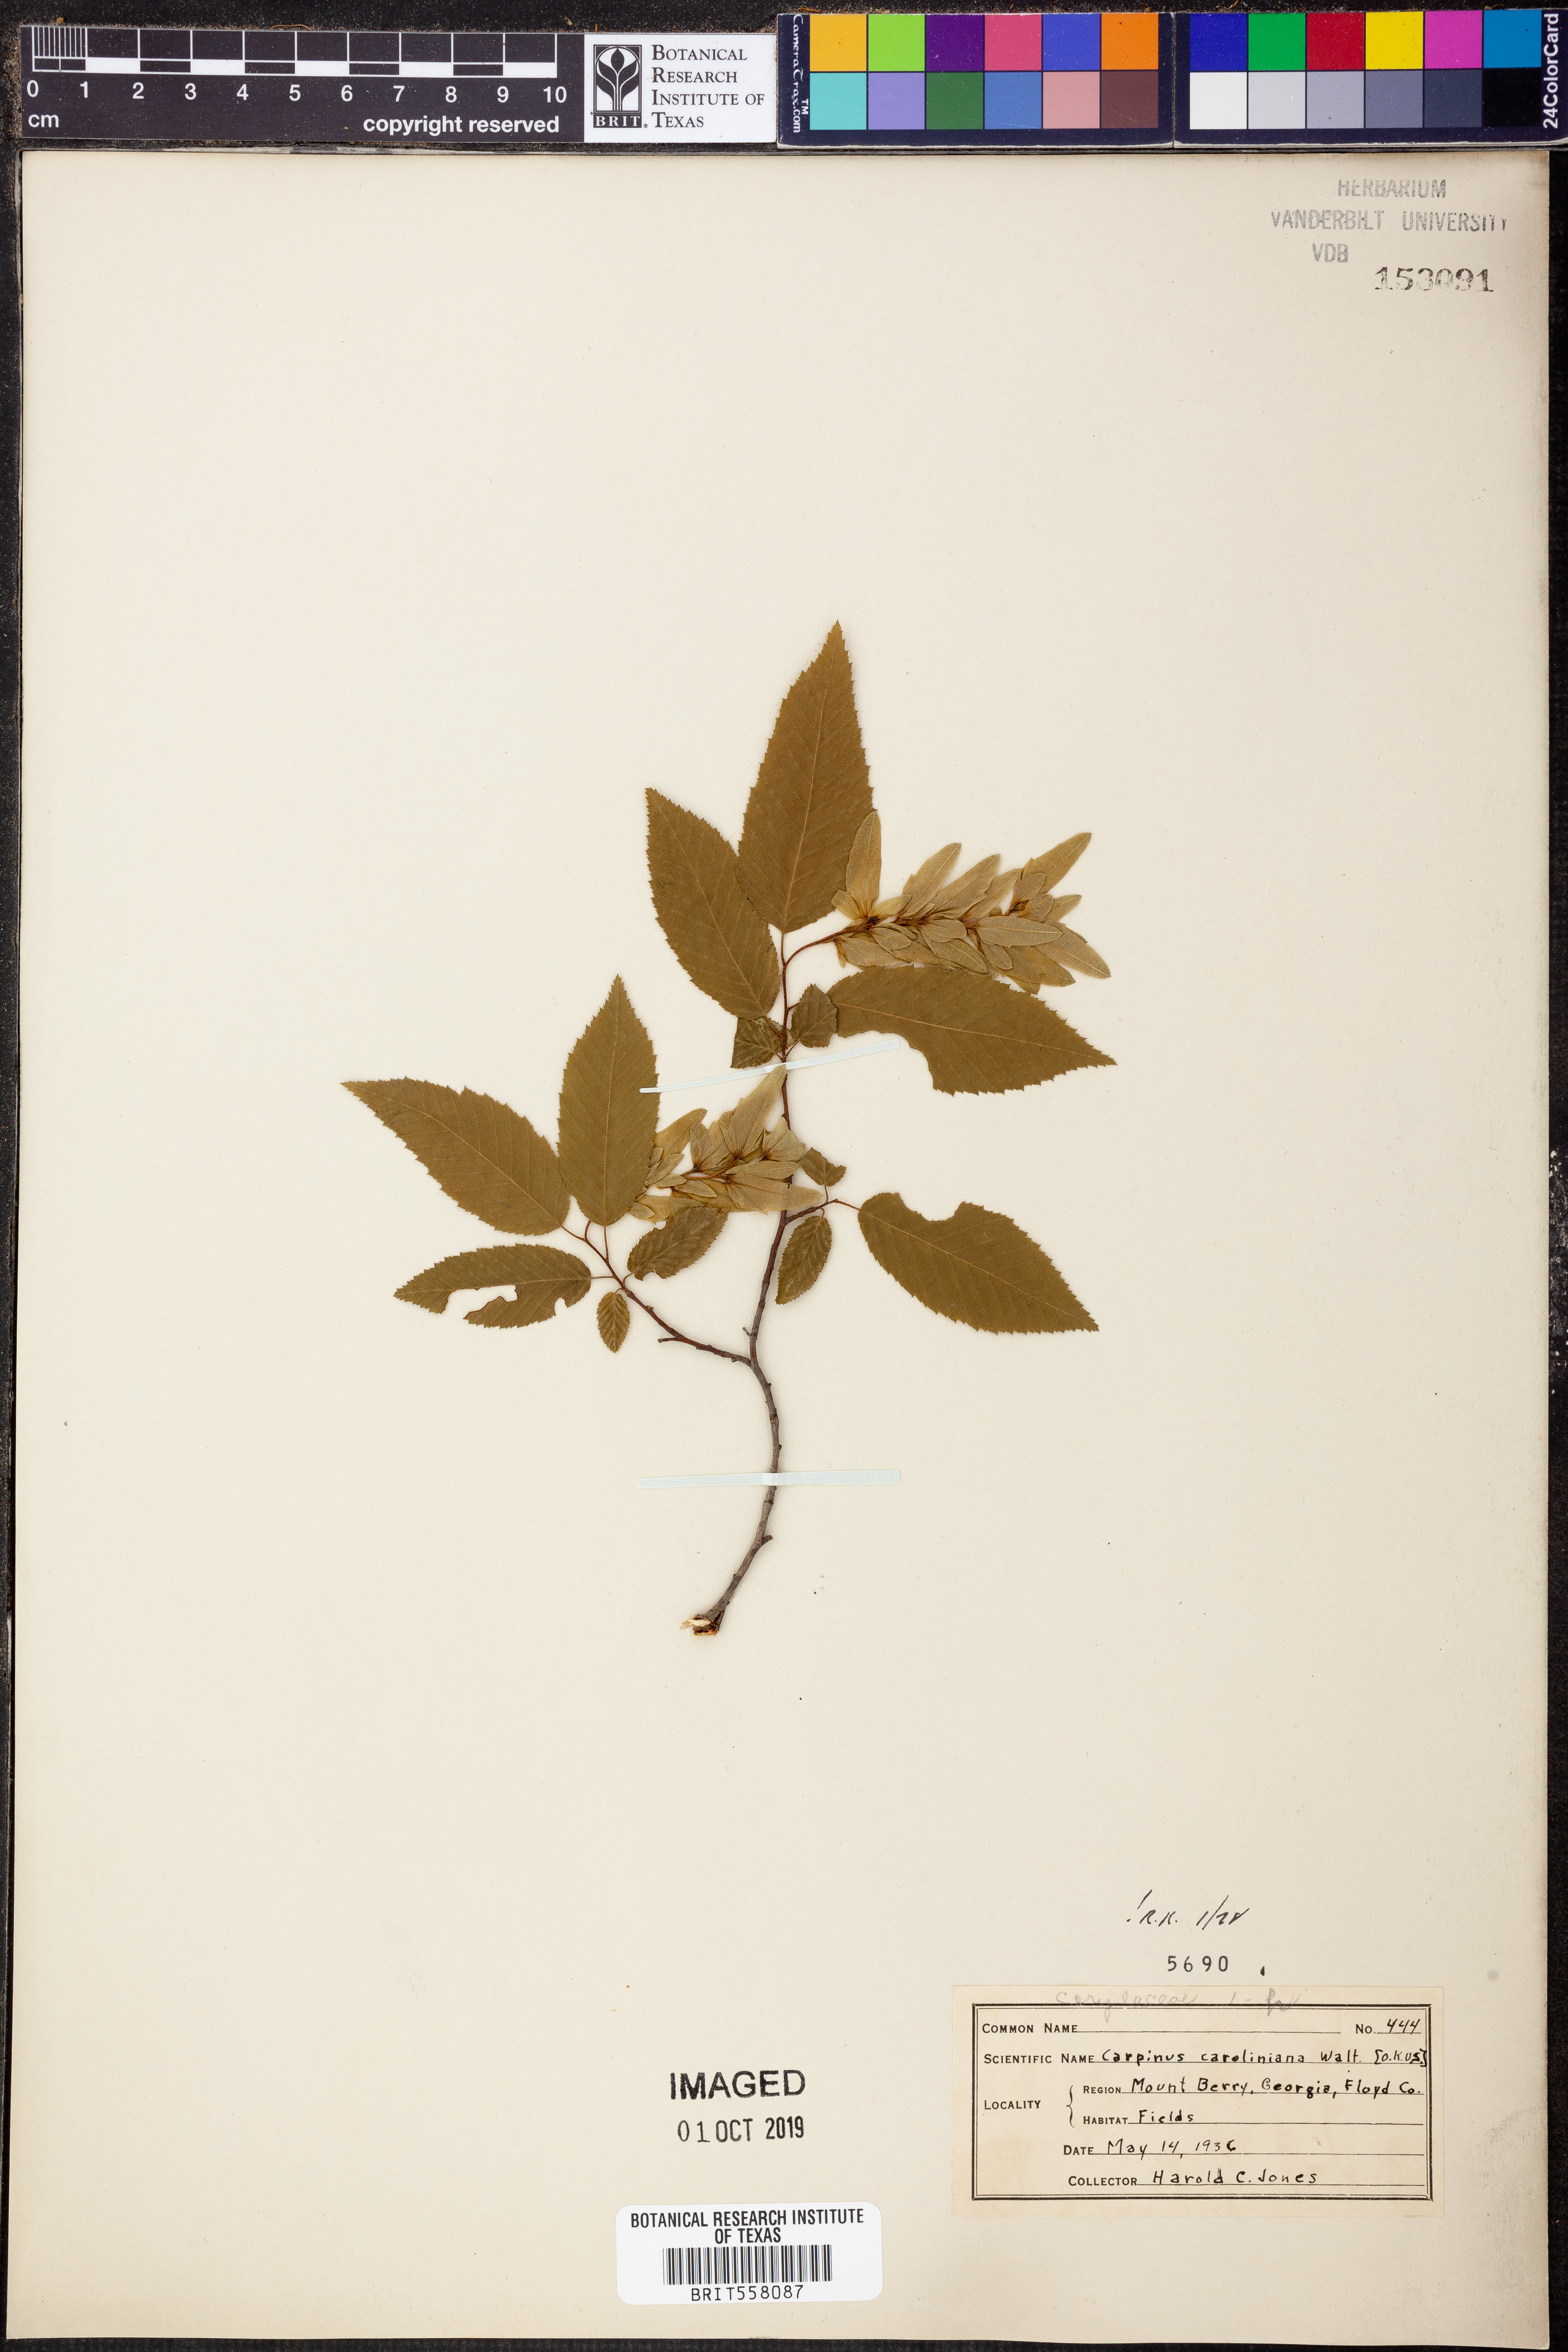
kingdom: Plantae
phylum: Tracheophyta
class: Magnoliopsida
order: Fagales
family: Betulaceae
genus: Carpinus
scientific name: Carpinus caroliniana
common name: American hornbeam
